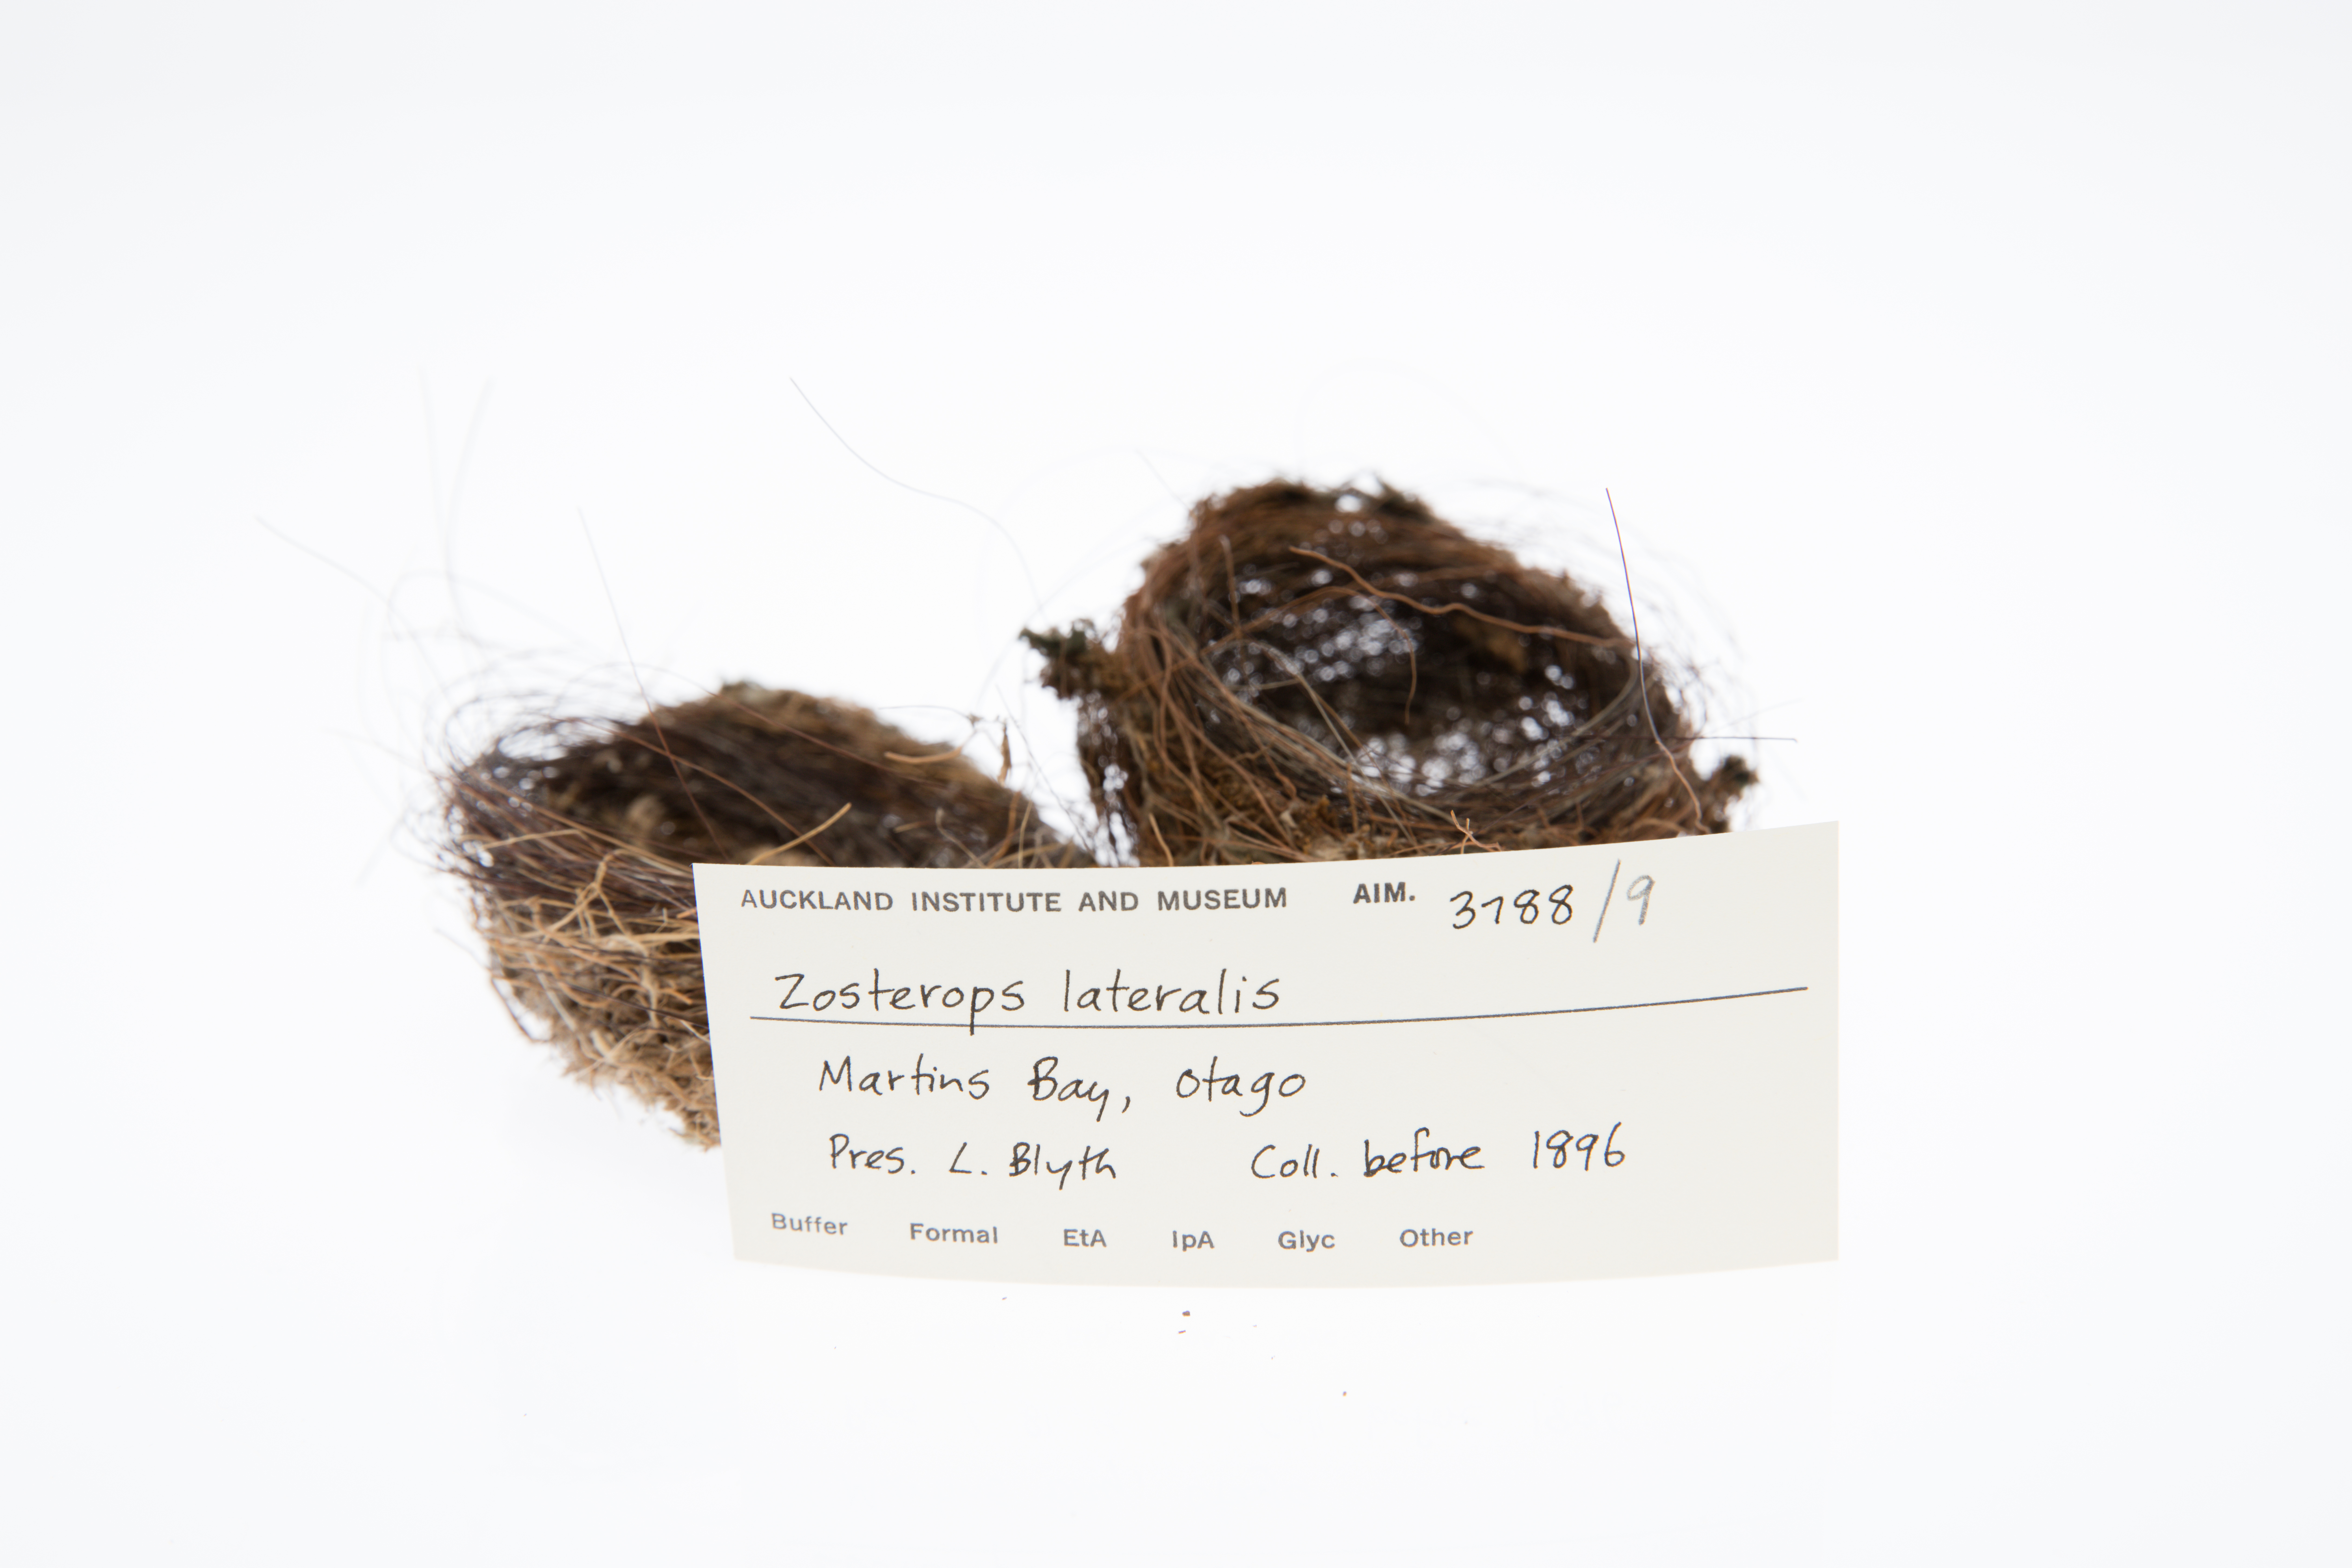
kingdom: Animalia
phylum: Chordata
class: Aves
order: Passeriformes
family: Zosteropidae
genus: Zosterops
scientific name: Zosterops lateralis
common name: Silvereye
